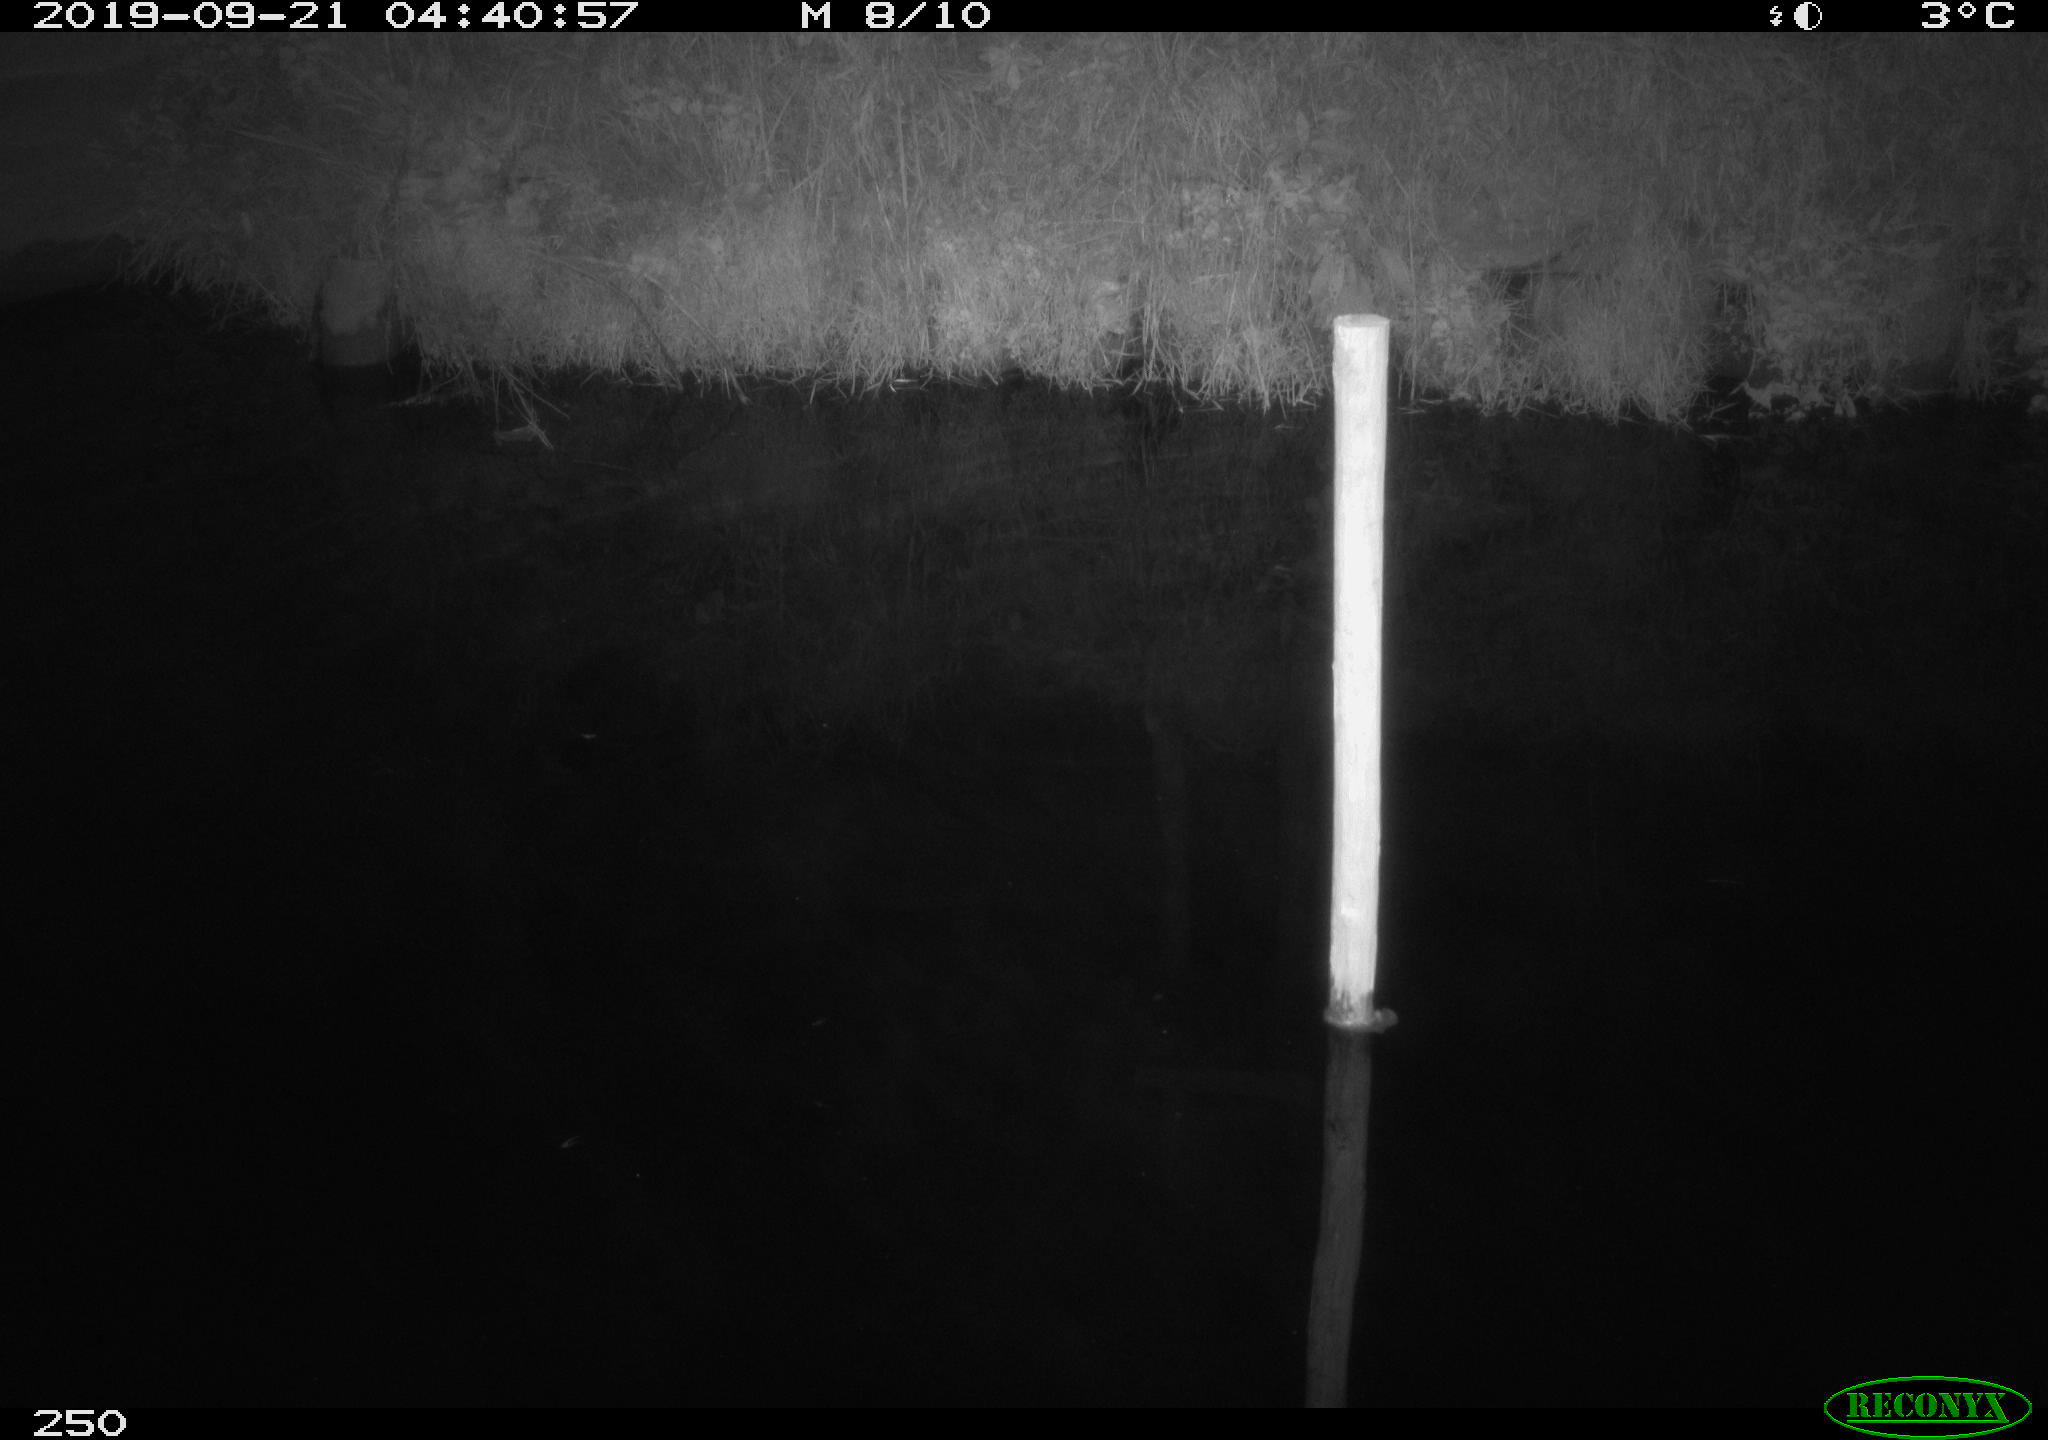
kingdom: Animalia
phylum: Chordata
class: Aves
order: Anseriformes
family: Anatidae
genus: Anas
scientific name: Anas platyrhynchos
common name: Mallard
